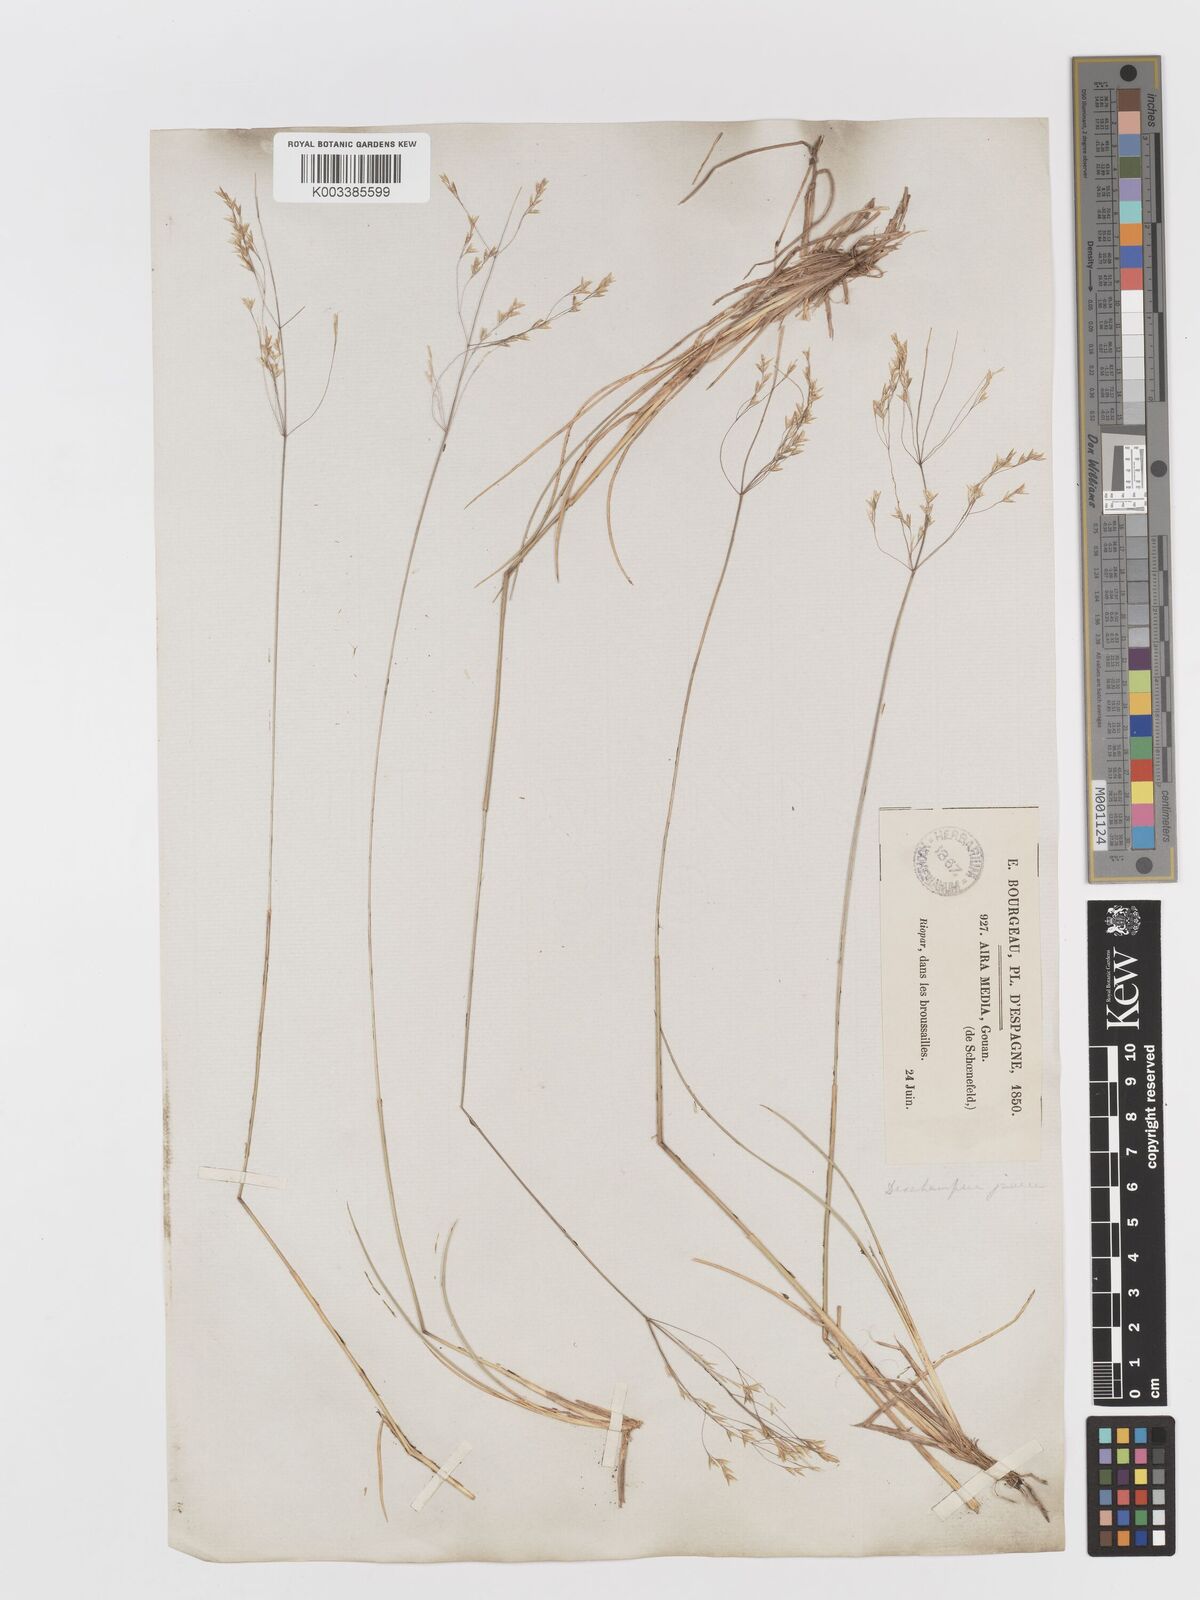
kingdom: Plantae
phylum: Tracheophyta
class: Liliopsida
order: Poales
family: Poaceae
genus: Deschampsia
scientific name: Deschampsia media
